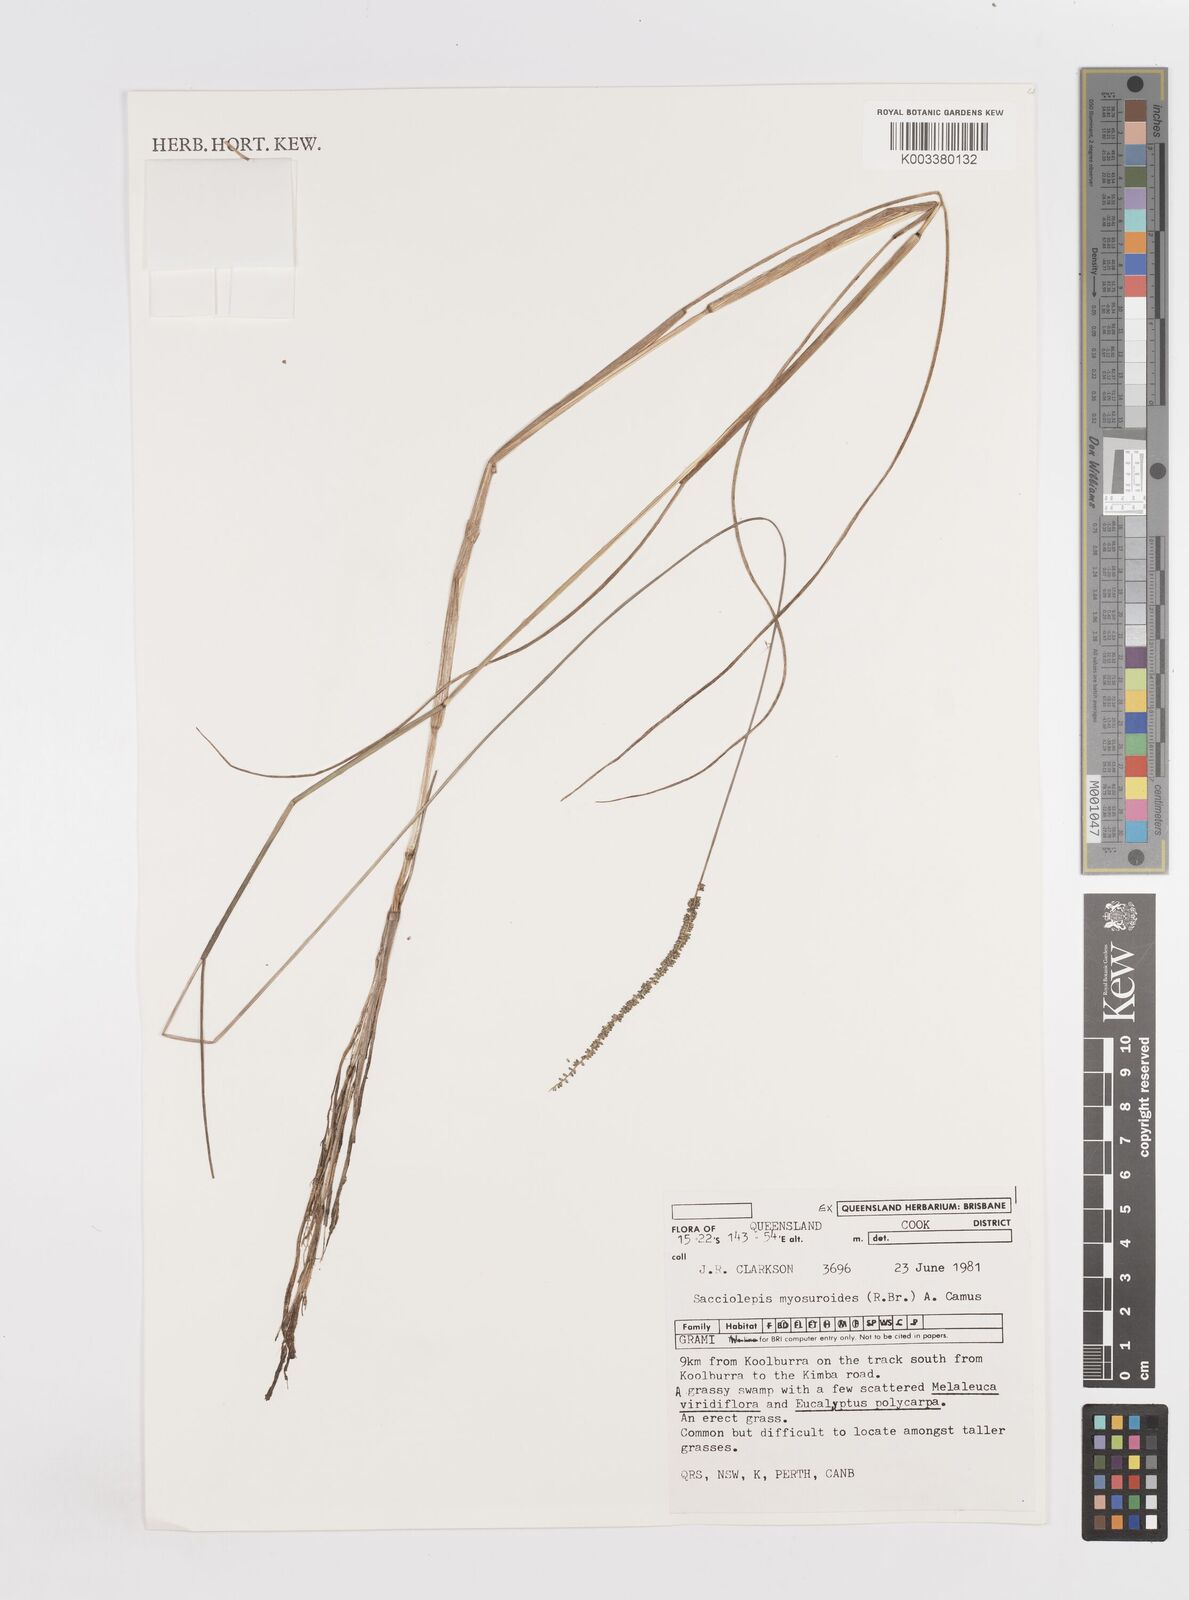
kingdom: Plantae
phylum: Tracheophyta
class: Liliopsida
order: Poales
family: Poaceae
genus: Sacciolepis
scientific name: Sacciolepis myosuroides
